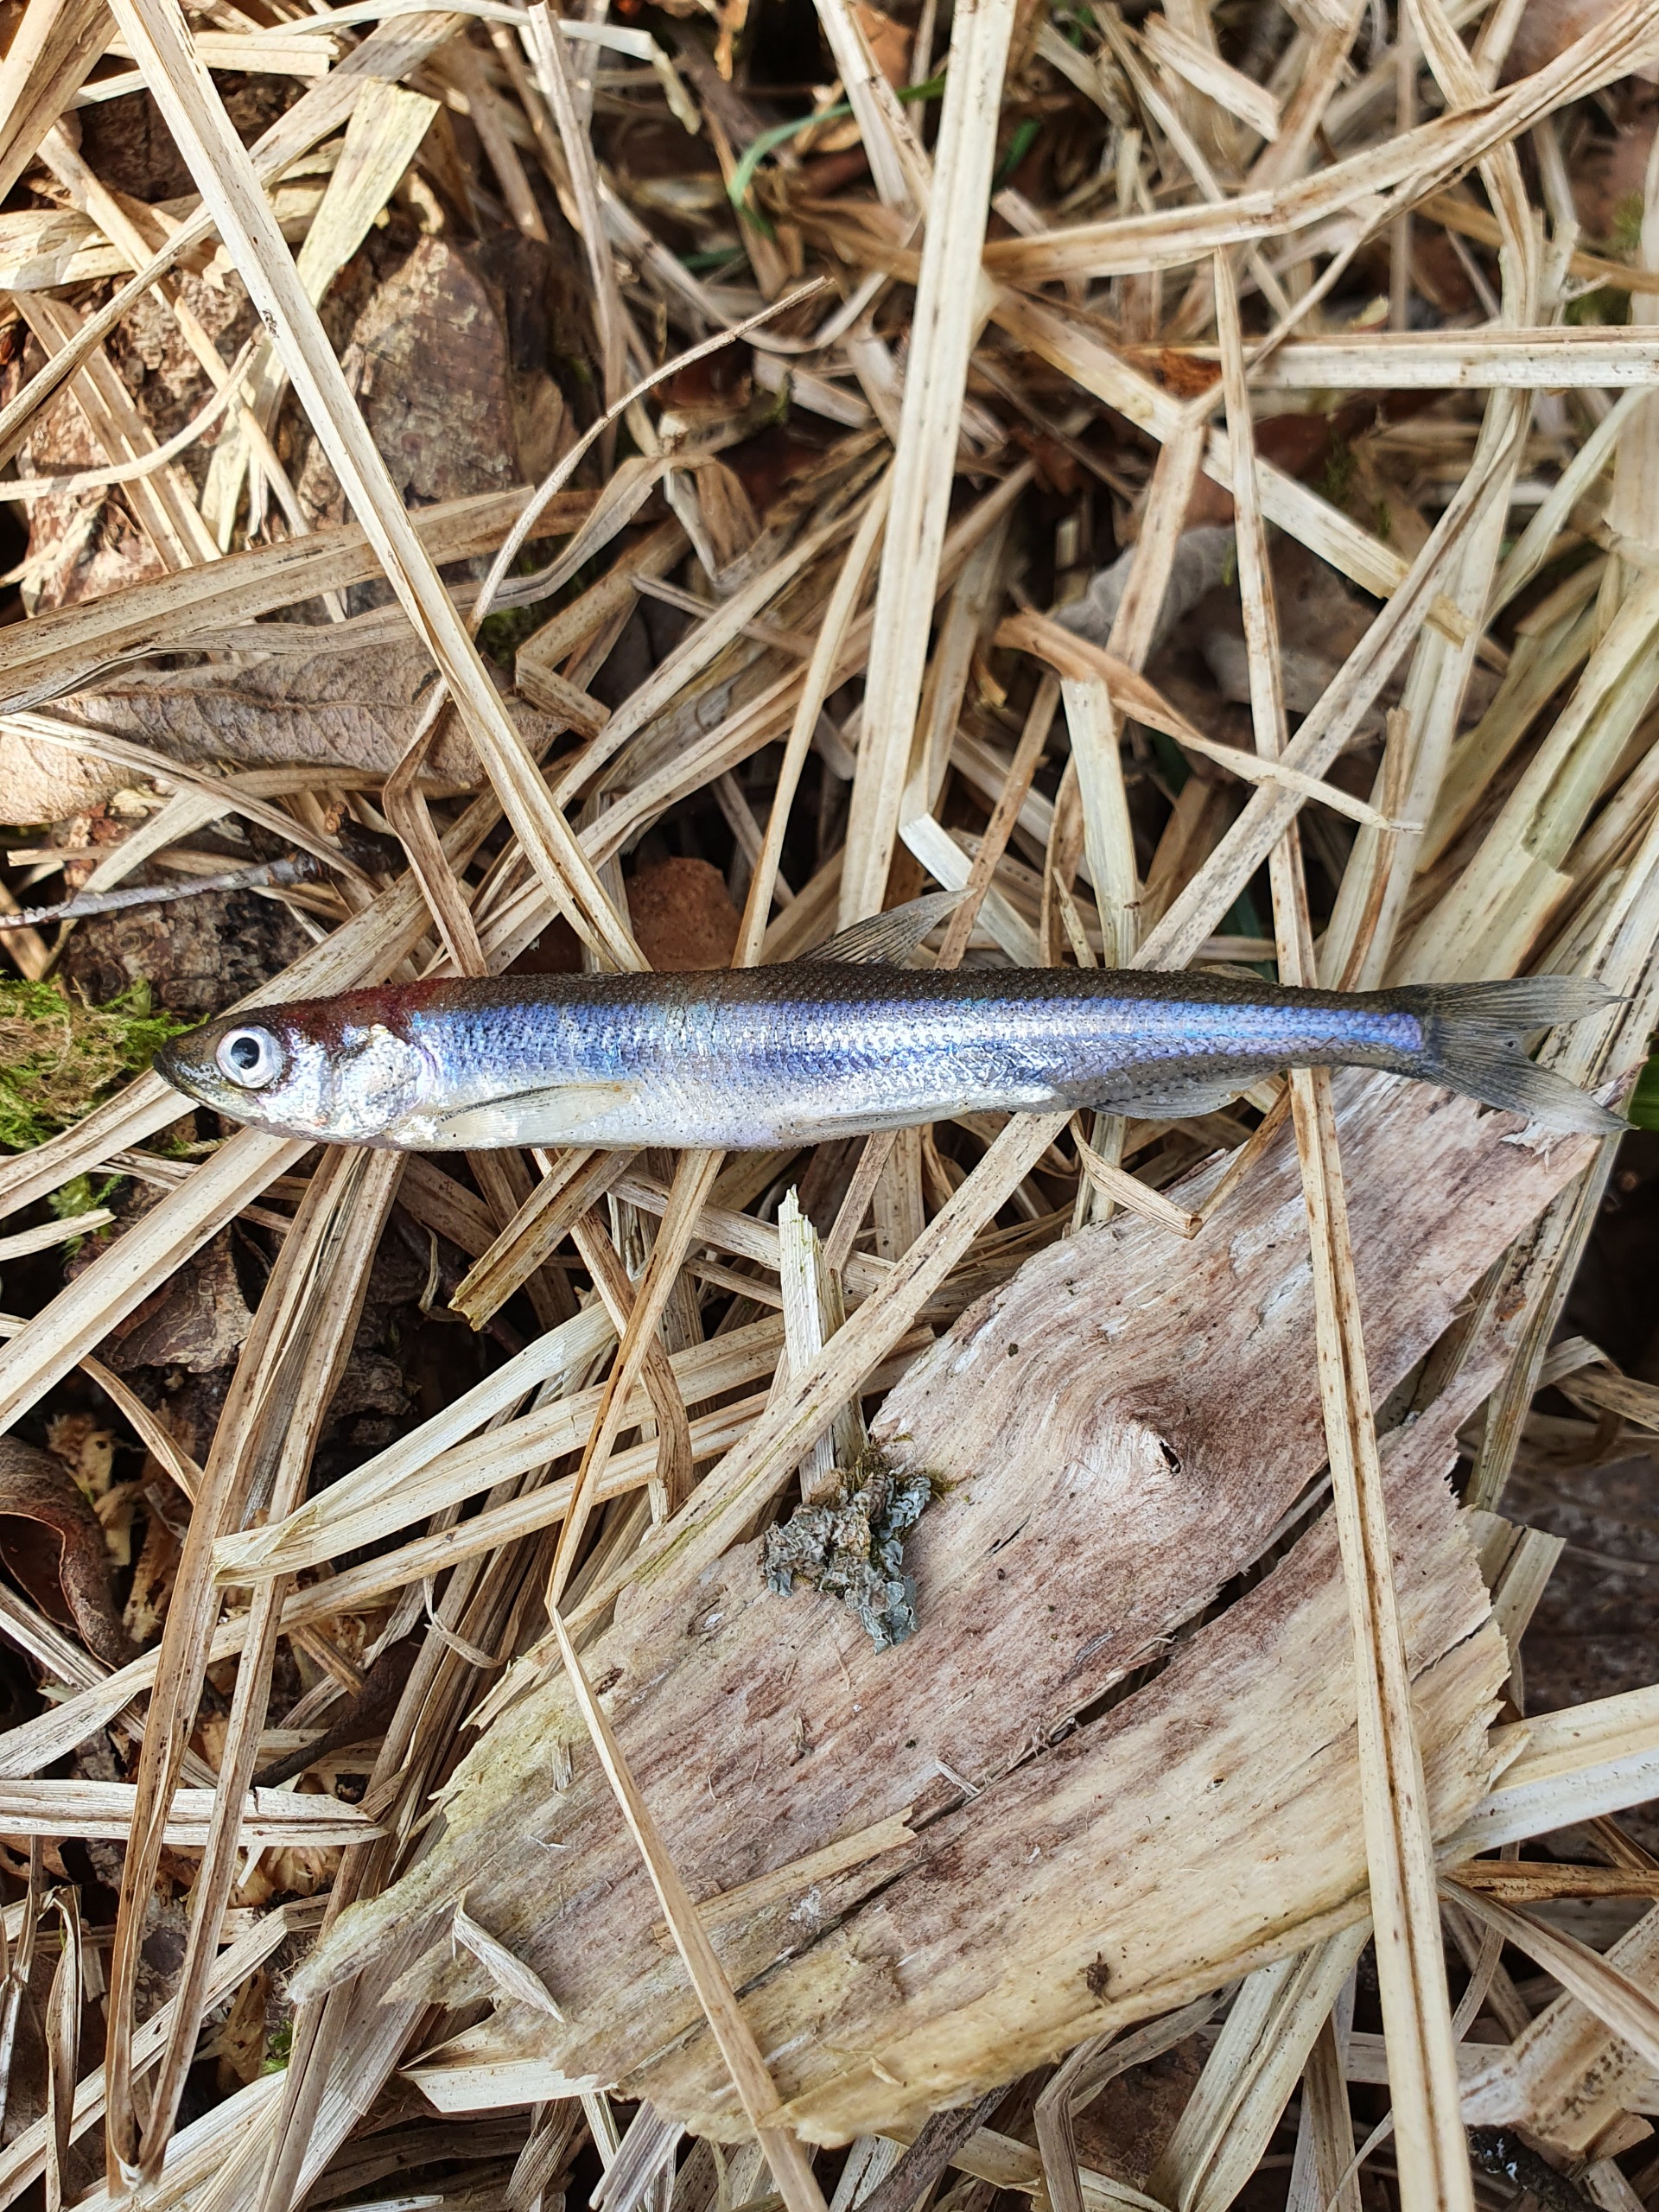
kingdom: Animalia
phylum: Chordata
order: Osmeriformes
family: Osmeridae
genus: Osmerus
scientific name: Osmerus eperlanus
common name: Smelt
